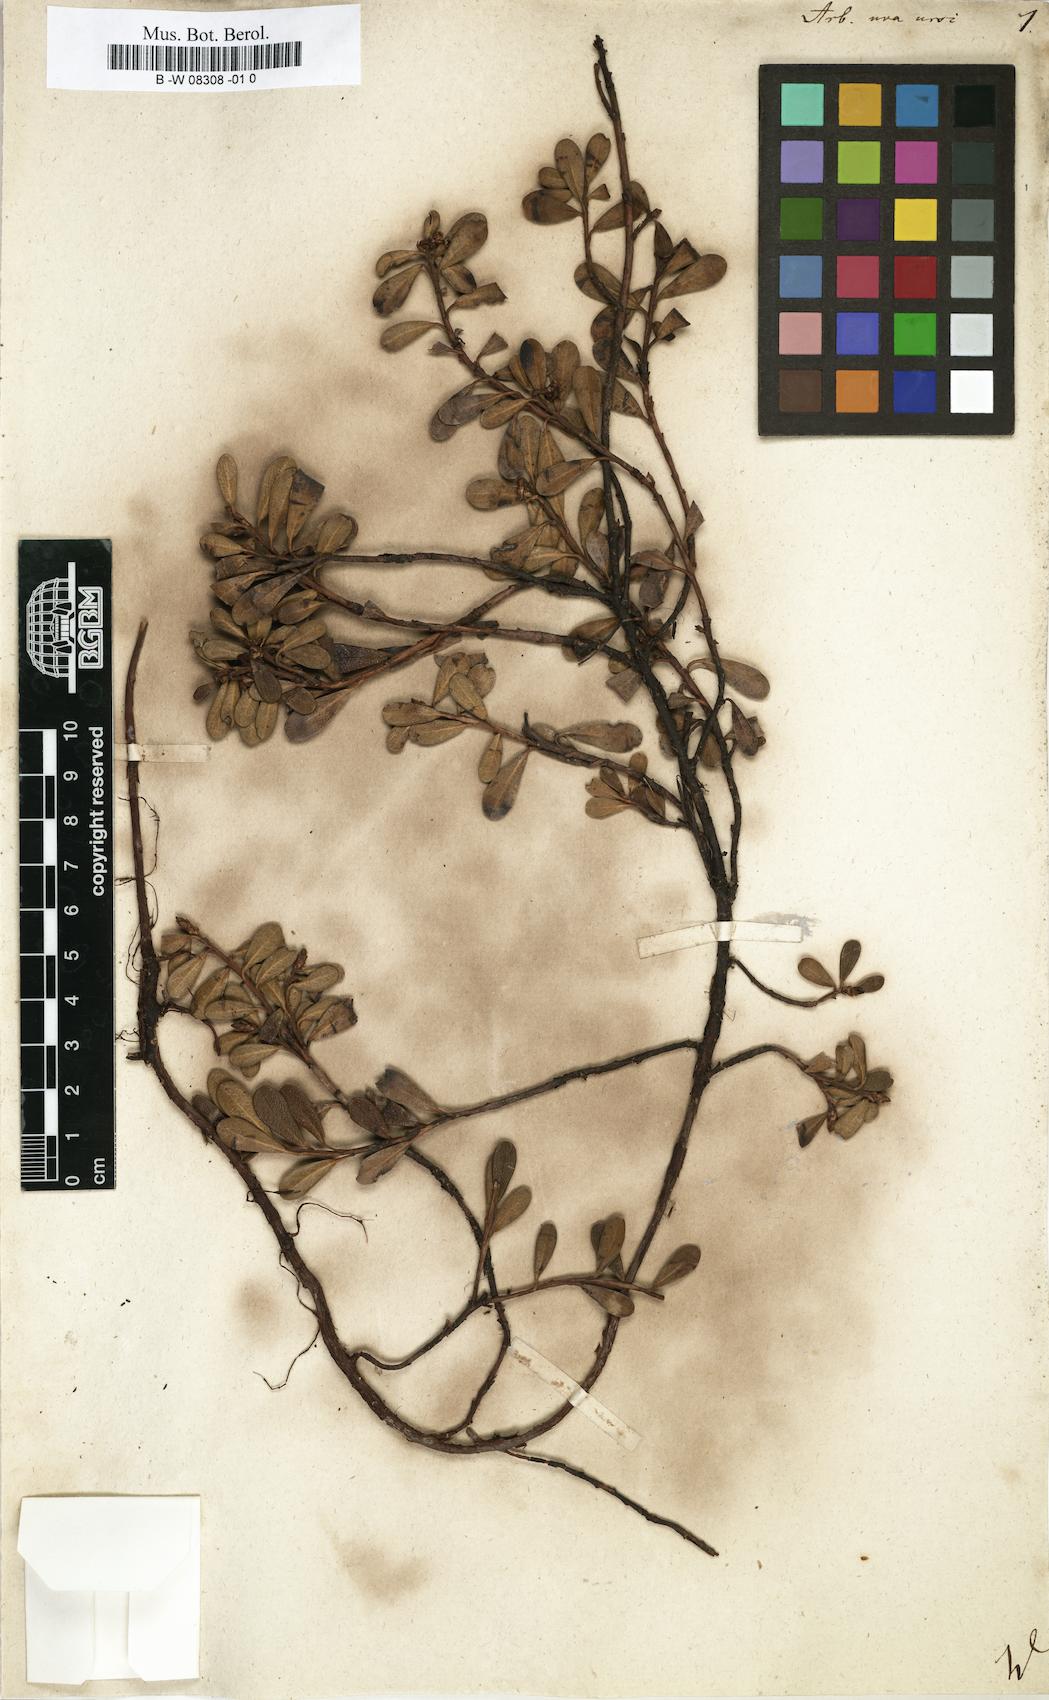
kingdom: Plantae
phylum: Tracheophyta
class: Magnoliopsida
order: Ericales
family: Ericaceae
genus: Arctostaphylos
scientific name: Arctostaphylos uva-ursi
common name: Bearberry
